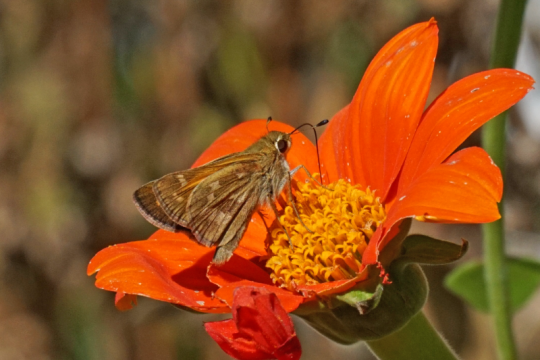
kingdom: Animalia
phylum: Arthropoda
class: Insecta
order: Lepidoptera
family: Hesperiidae
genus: Atalopedes
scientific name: Atalopedes campestris
